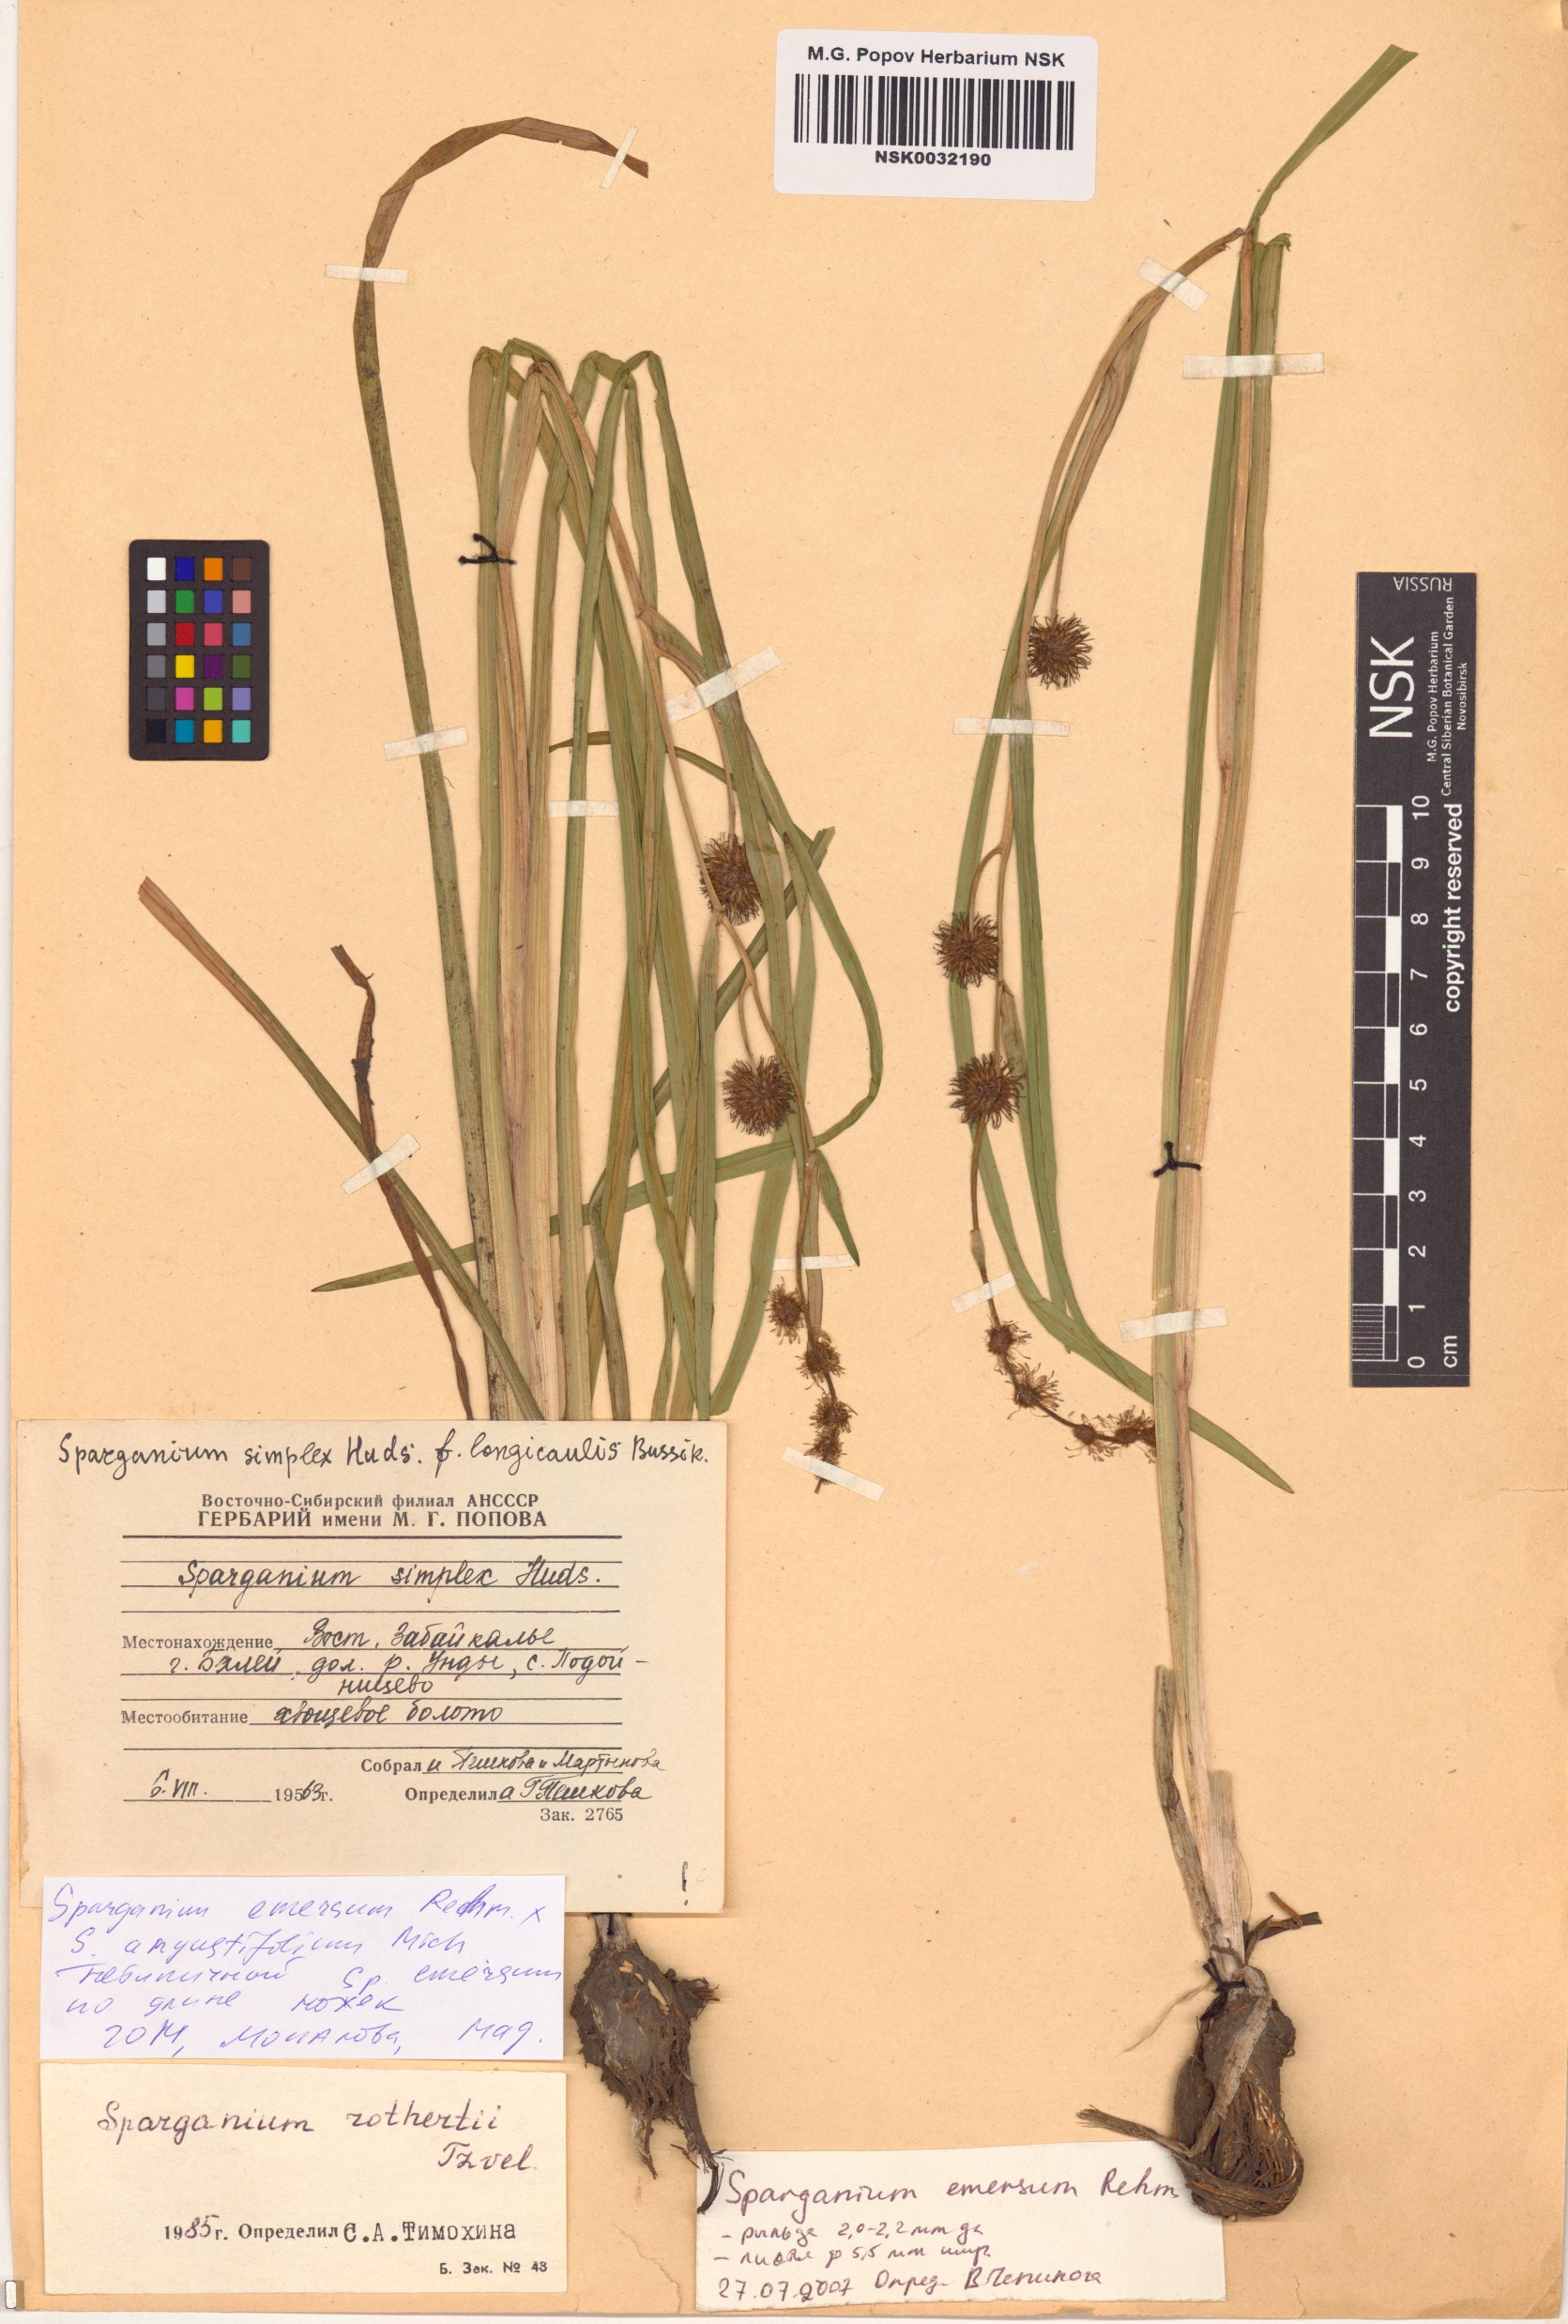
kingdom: Plantae
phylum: Tracheophyta
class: Liliopsida
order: Poales
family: Typhaceae
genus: Sparganium
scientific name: Sparganium emersum
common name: Unbranched bur-reed
